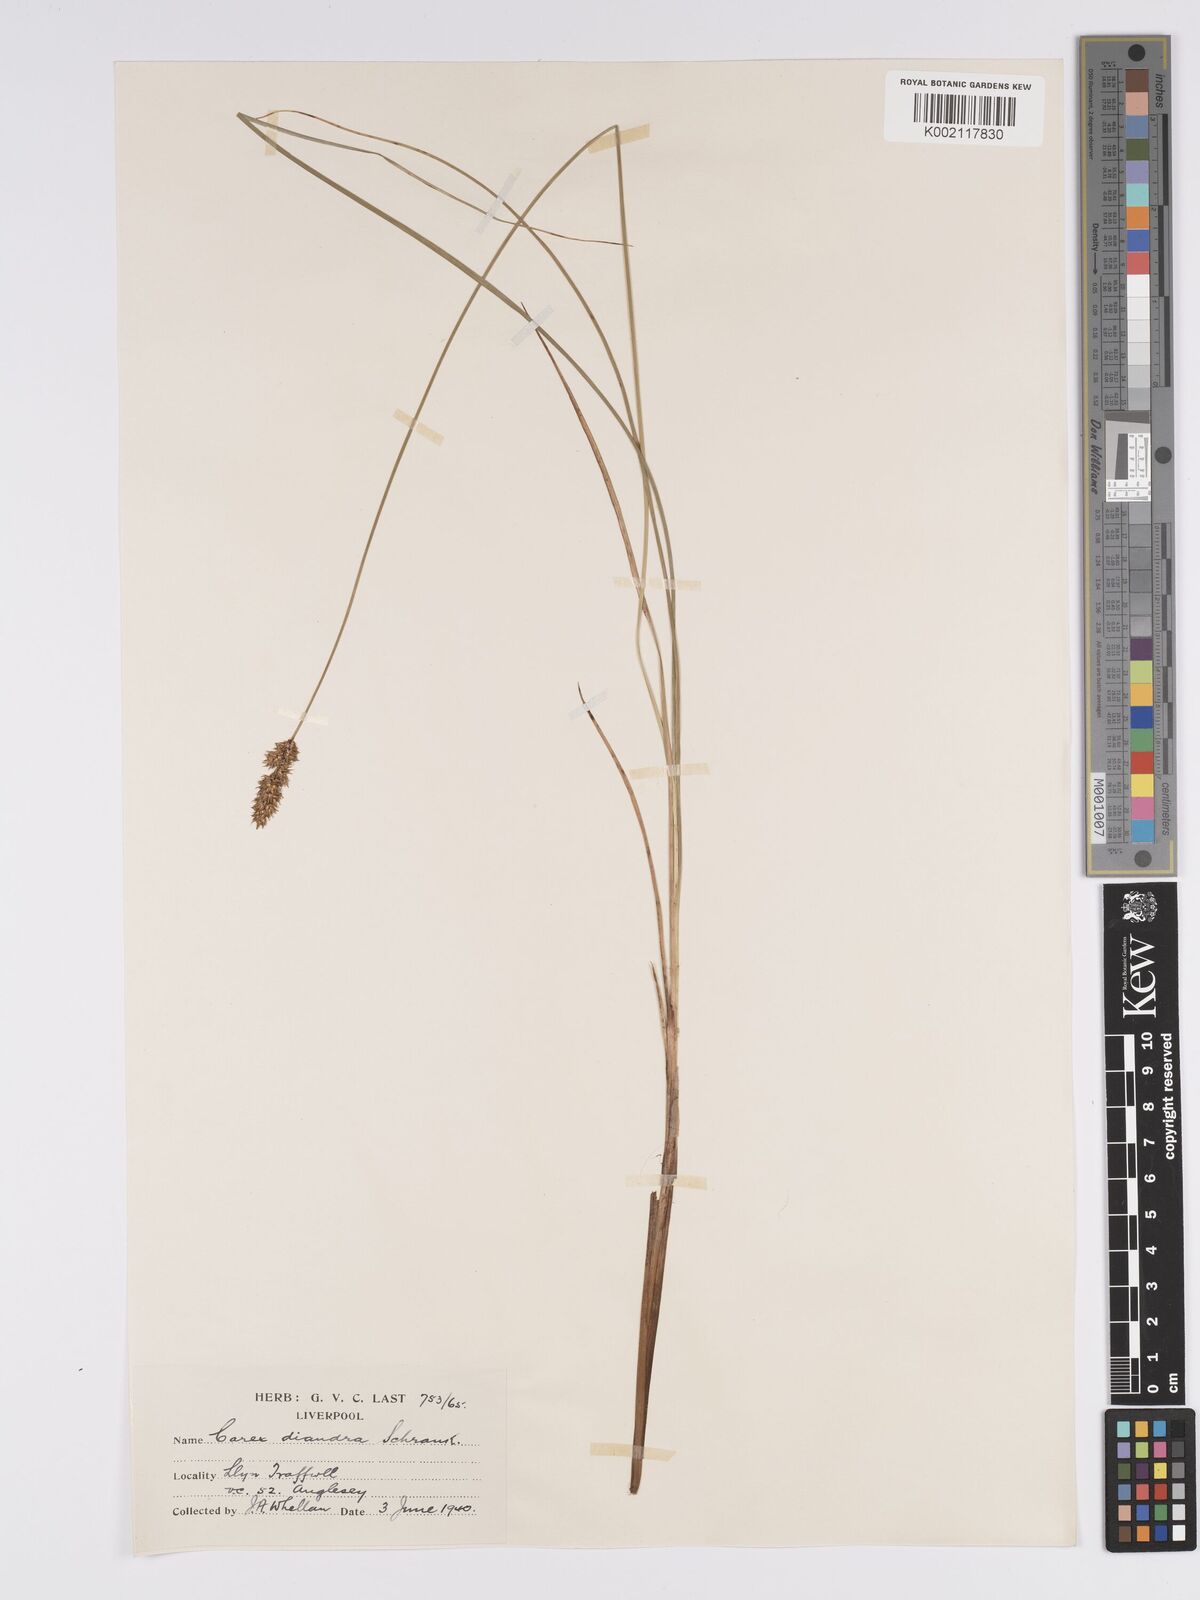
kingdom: Plantae
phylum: Tracheophyta
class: Liliopsida
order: Poales
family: Cyperaceae
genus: Carex
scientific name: Carex diandra
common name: Lesser tussock-sedge
